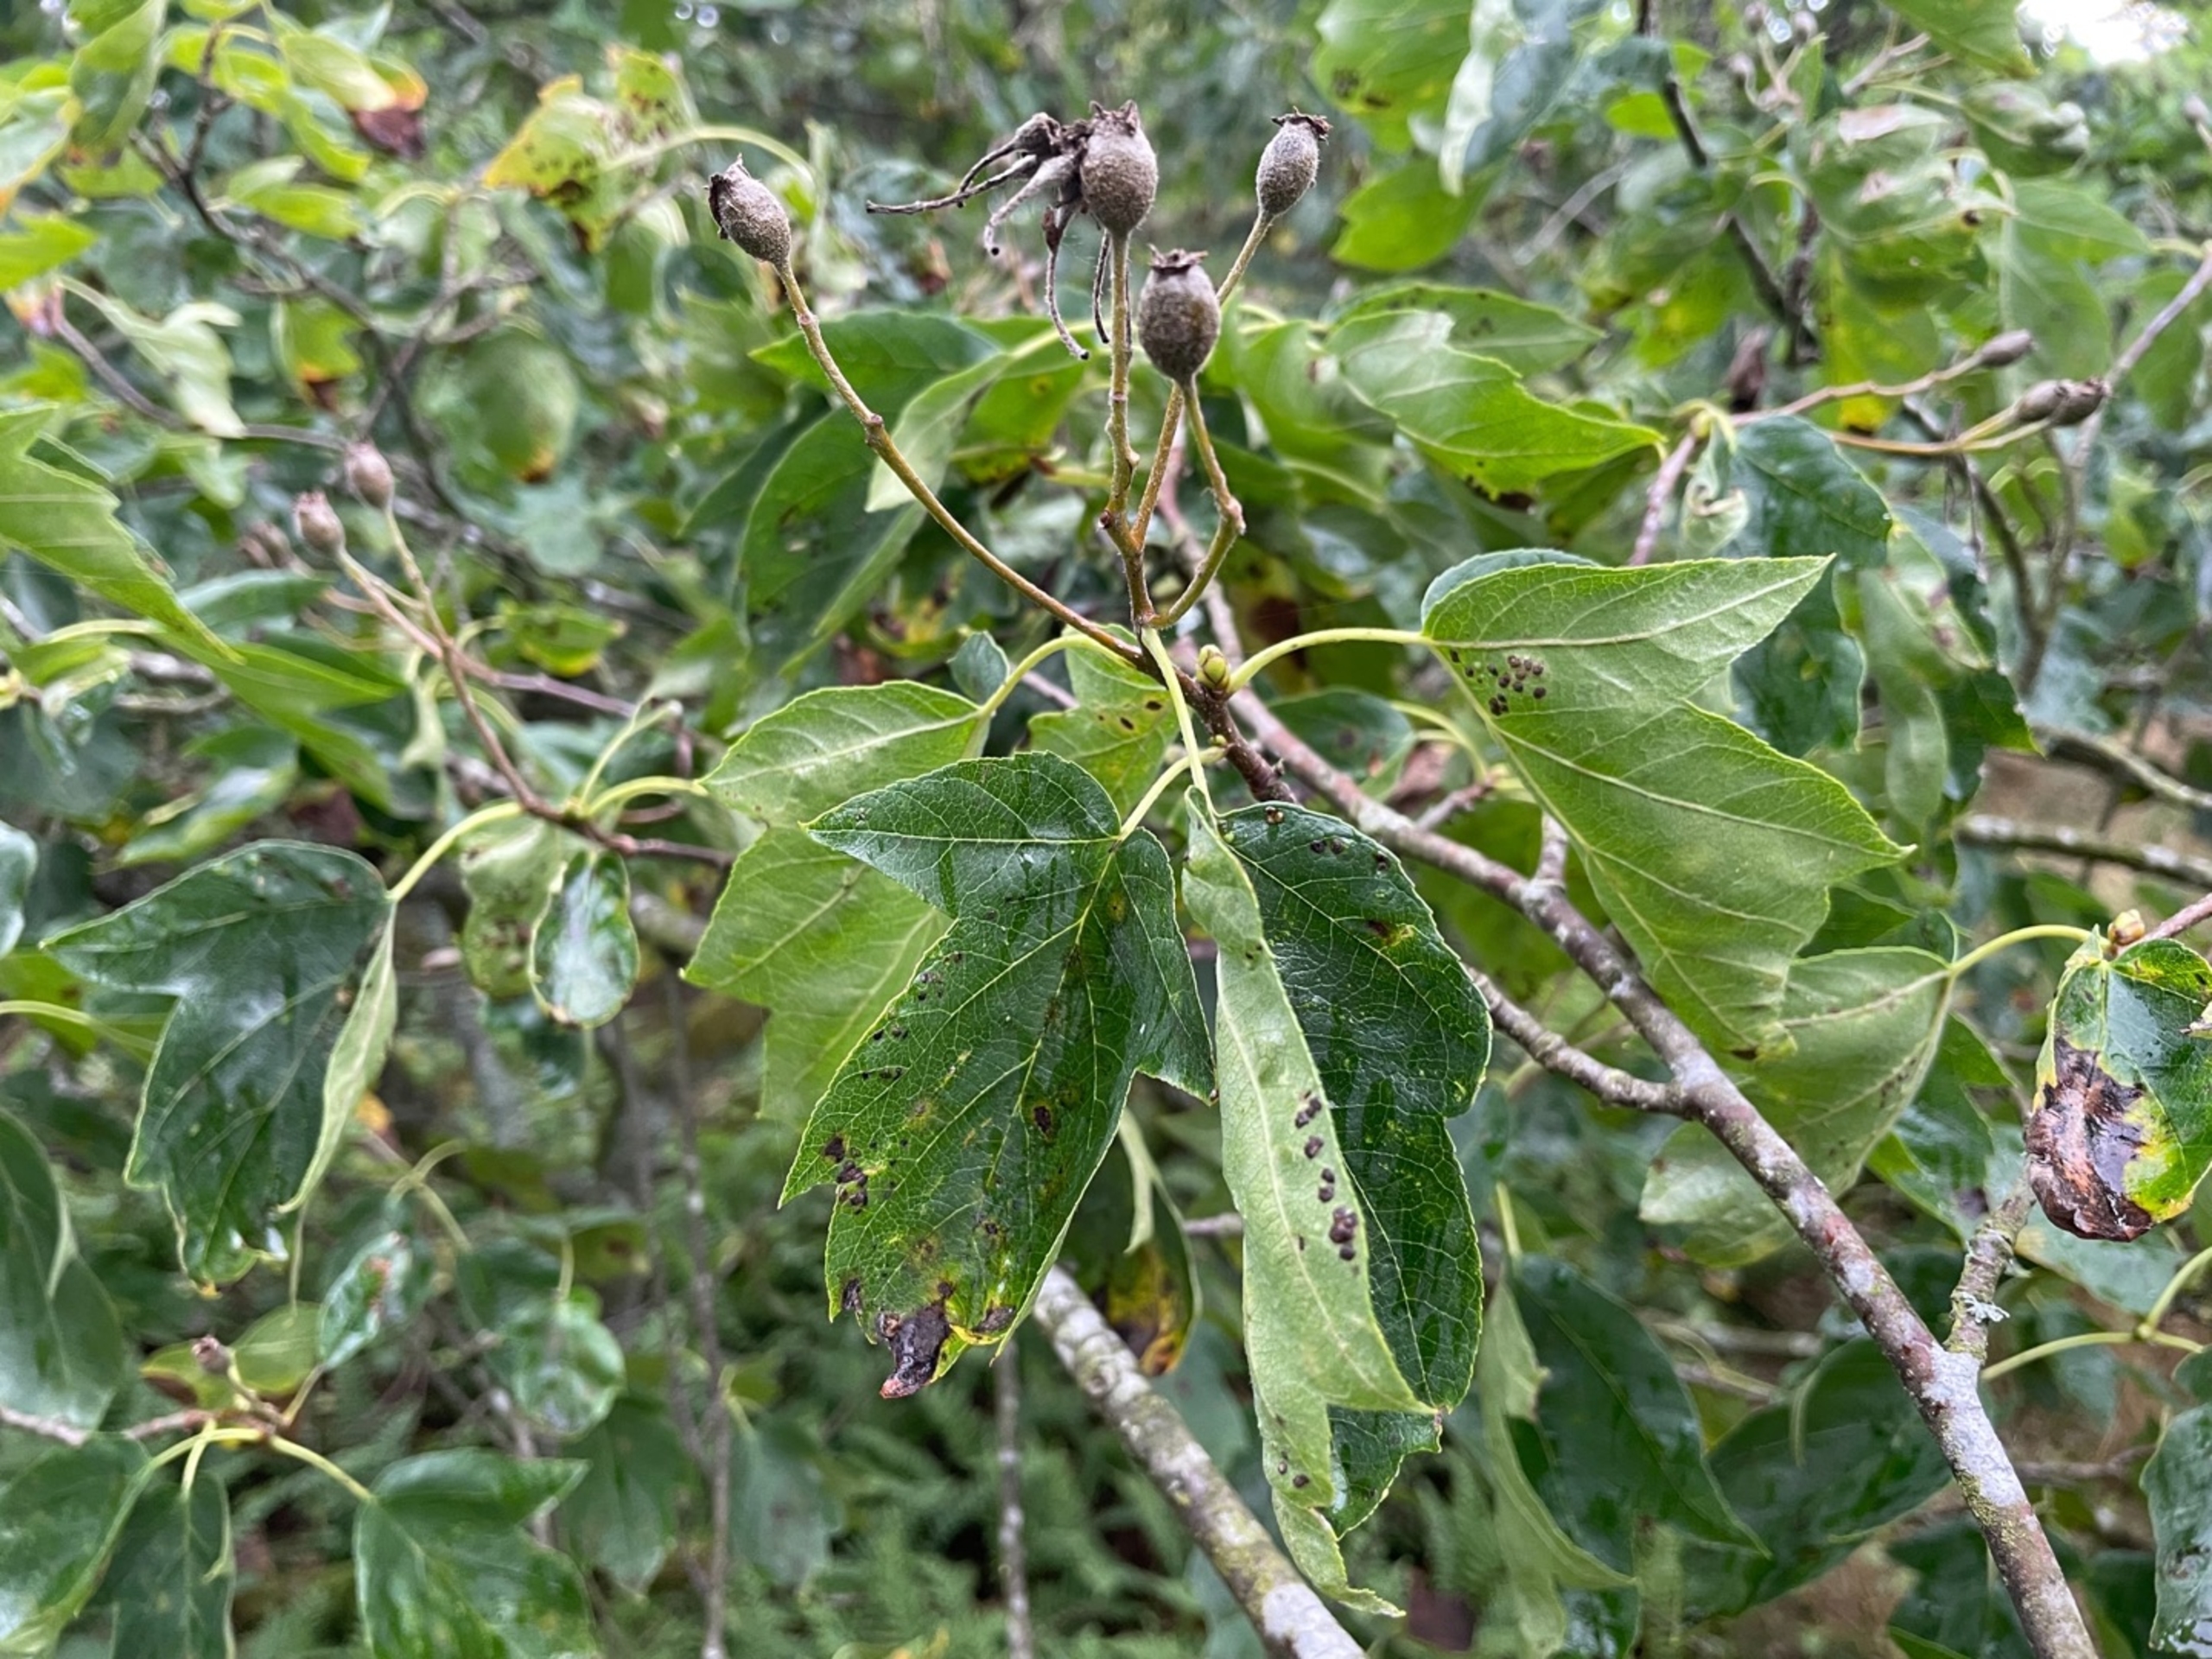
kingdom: Plantae
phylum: Tracheophyta
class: Magnoliopsida
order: Rosales
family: Rosaceae
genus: Torminalis
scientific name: Torminalis glaberrima
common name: Tarmvrid-røn
